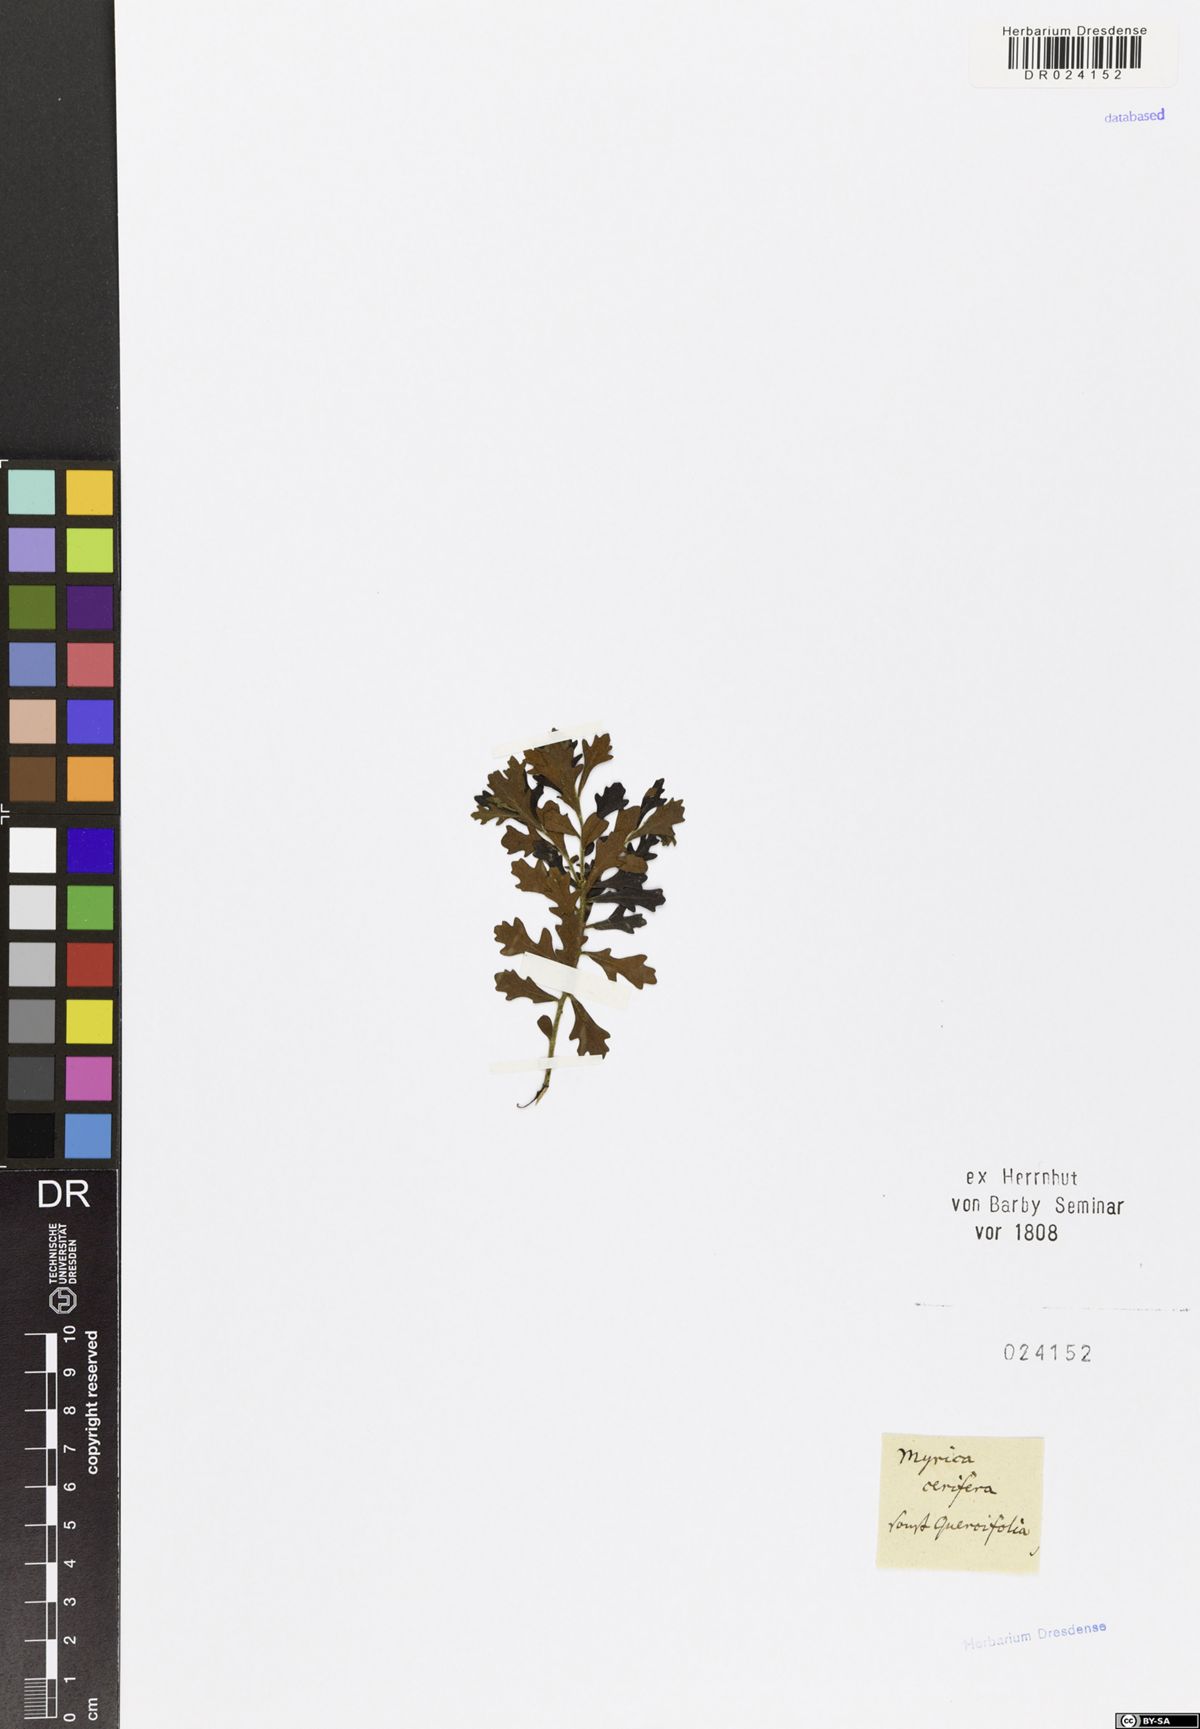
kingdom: Plantae
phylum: Tracheophyta
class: Magnoliopsida
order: Fagales
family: Myricaceae
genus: Morella
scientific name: Morella quercifolia
